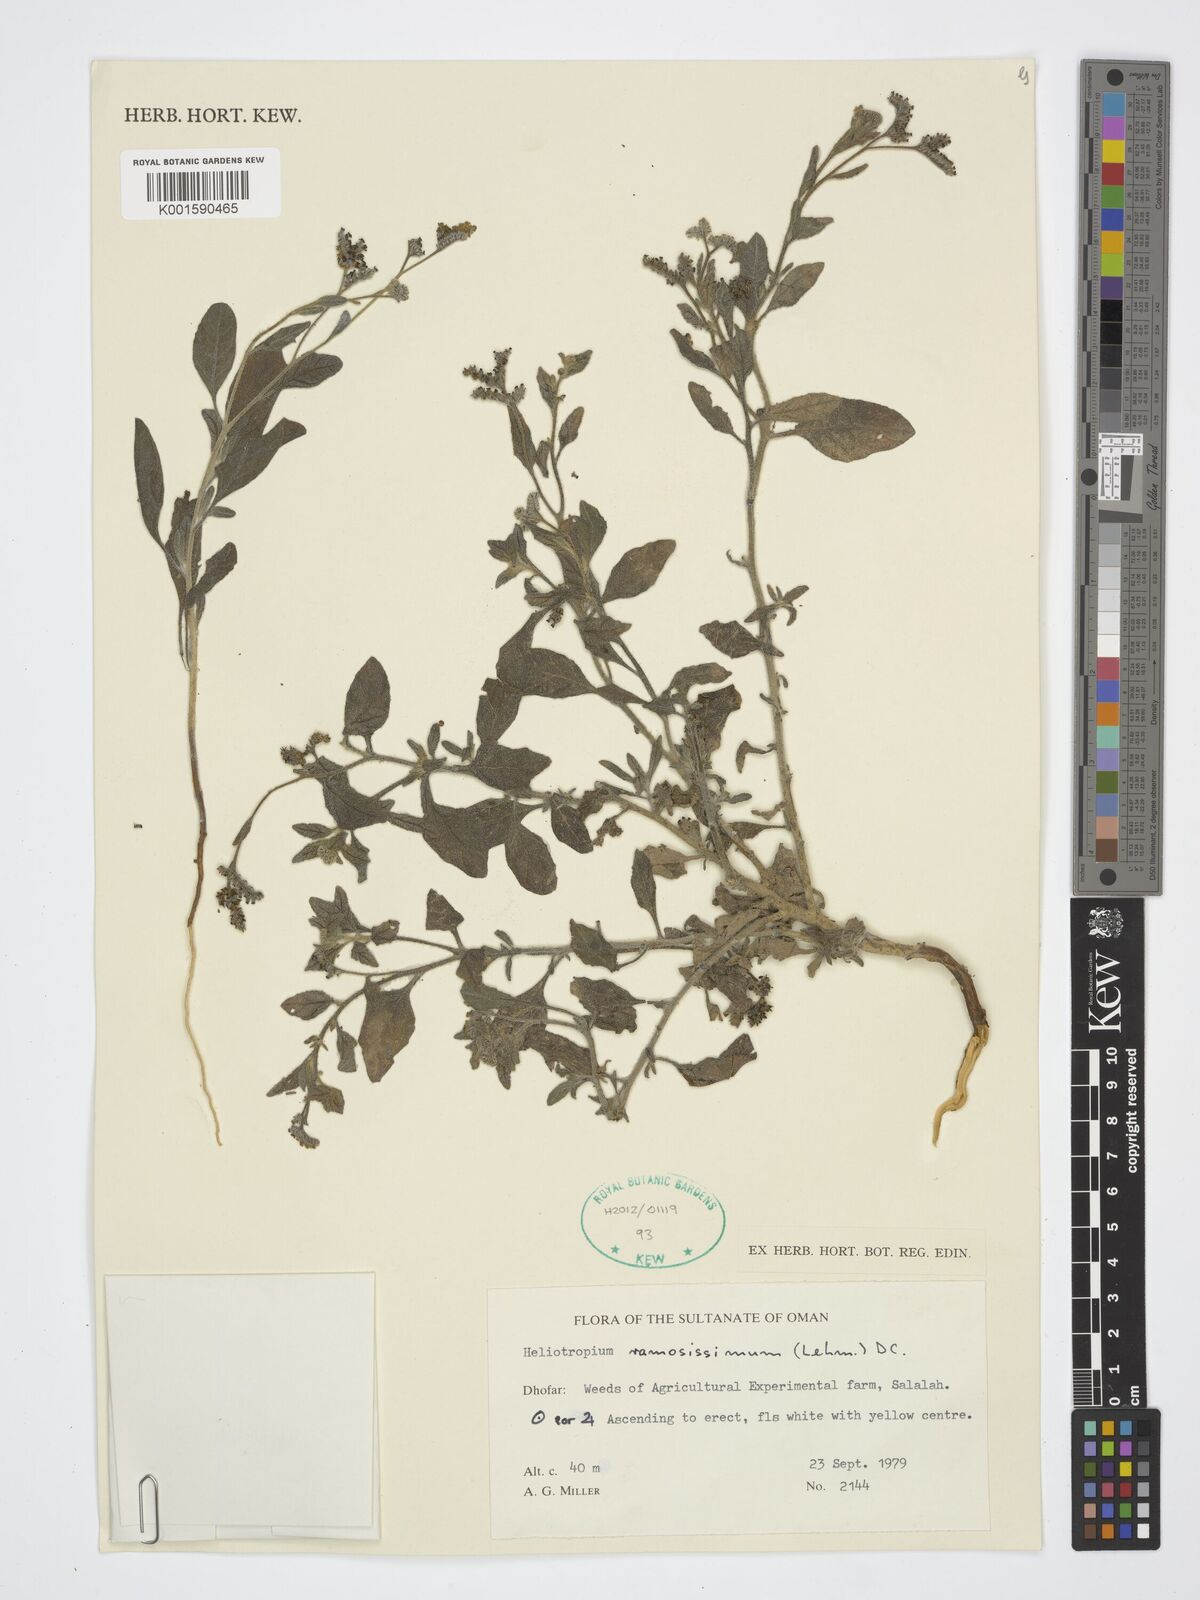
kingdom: Plantae
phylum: Tracheophyta
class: Magnoliopsida
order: Boraginales
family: Heliotropiaceae
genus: Heliotropium
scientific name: Heliotropium ramosissimum
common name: Wavy heliotrope
